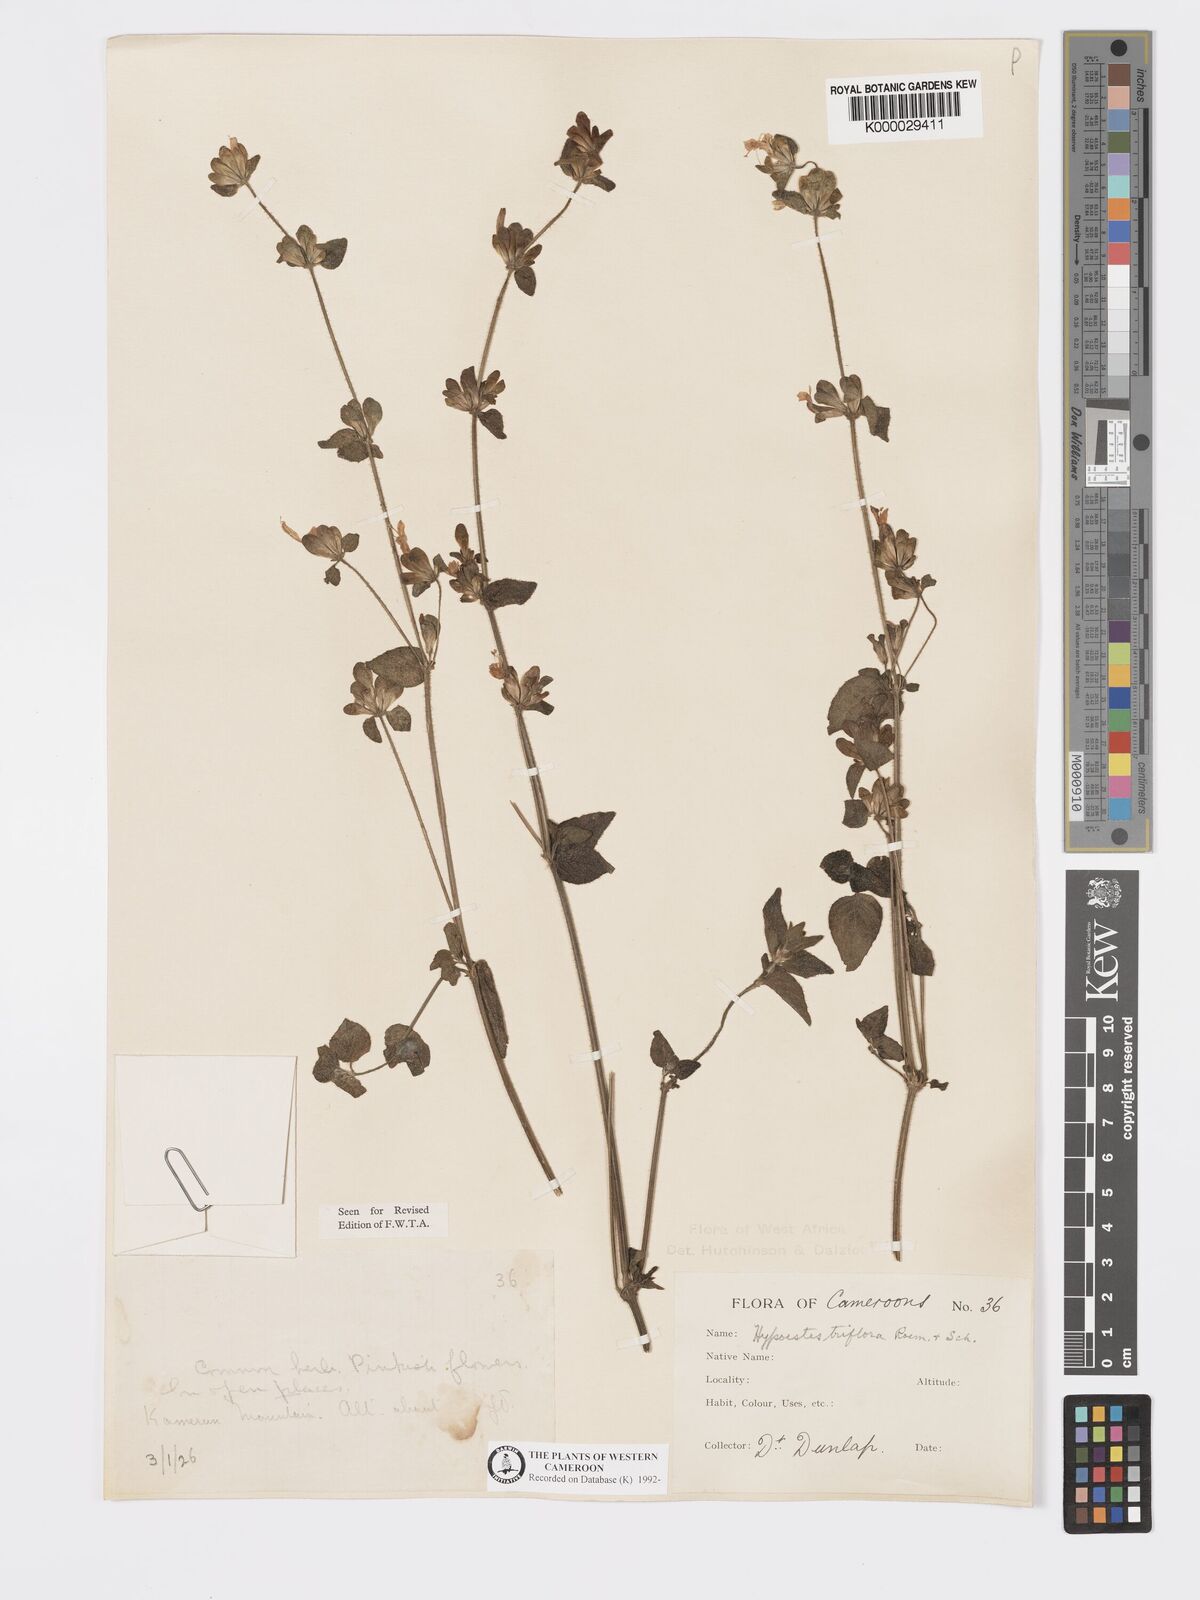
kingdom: Plantae
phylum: Tracheophyta
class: Magnoliopsida
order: Lamiales
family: Acanthaceae
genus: Hypoestes
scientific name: Hypoestes triflora
